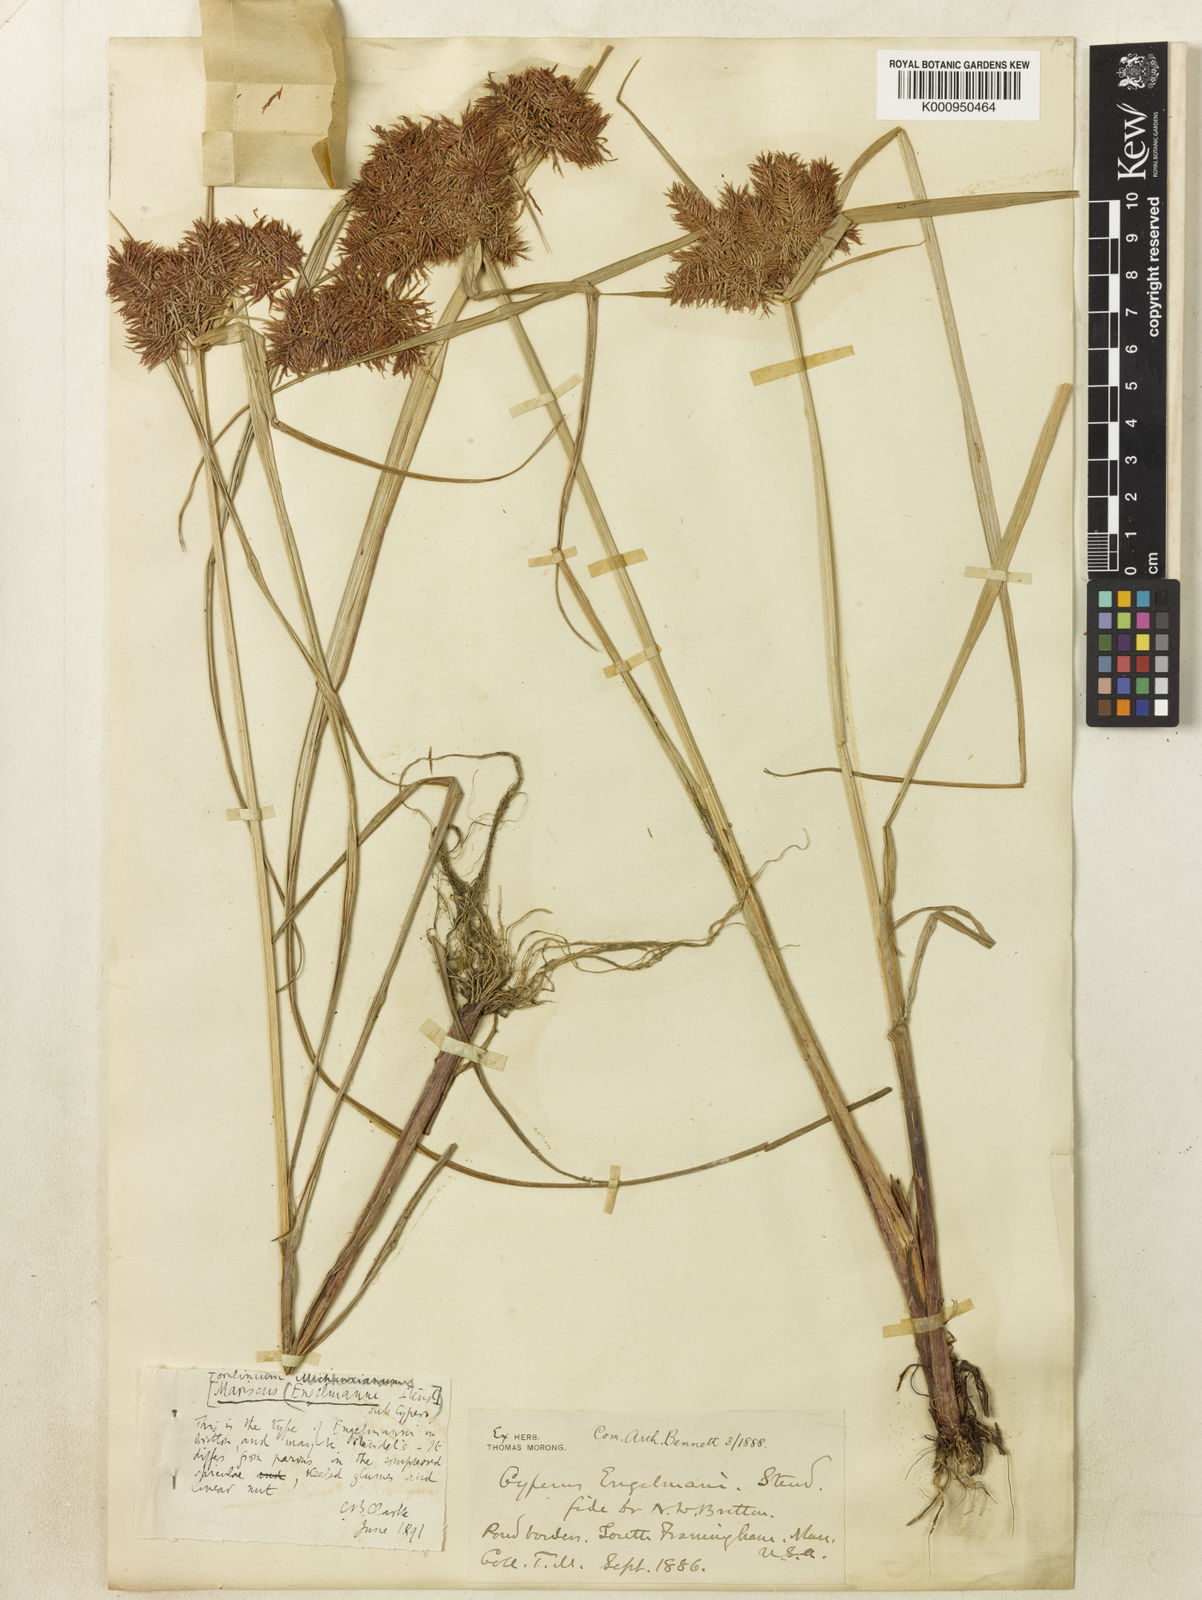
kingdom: Plantae
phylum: Tracheophyta
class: Liliopsida
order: Poales
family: Cyperaceae
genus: Cyperus
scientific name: Cyperus odoratus
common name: Fragrant flatsedge
